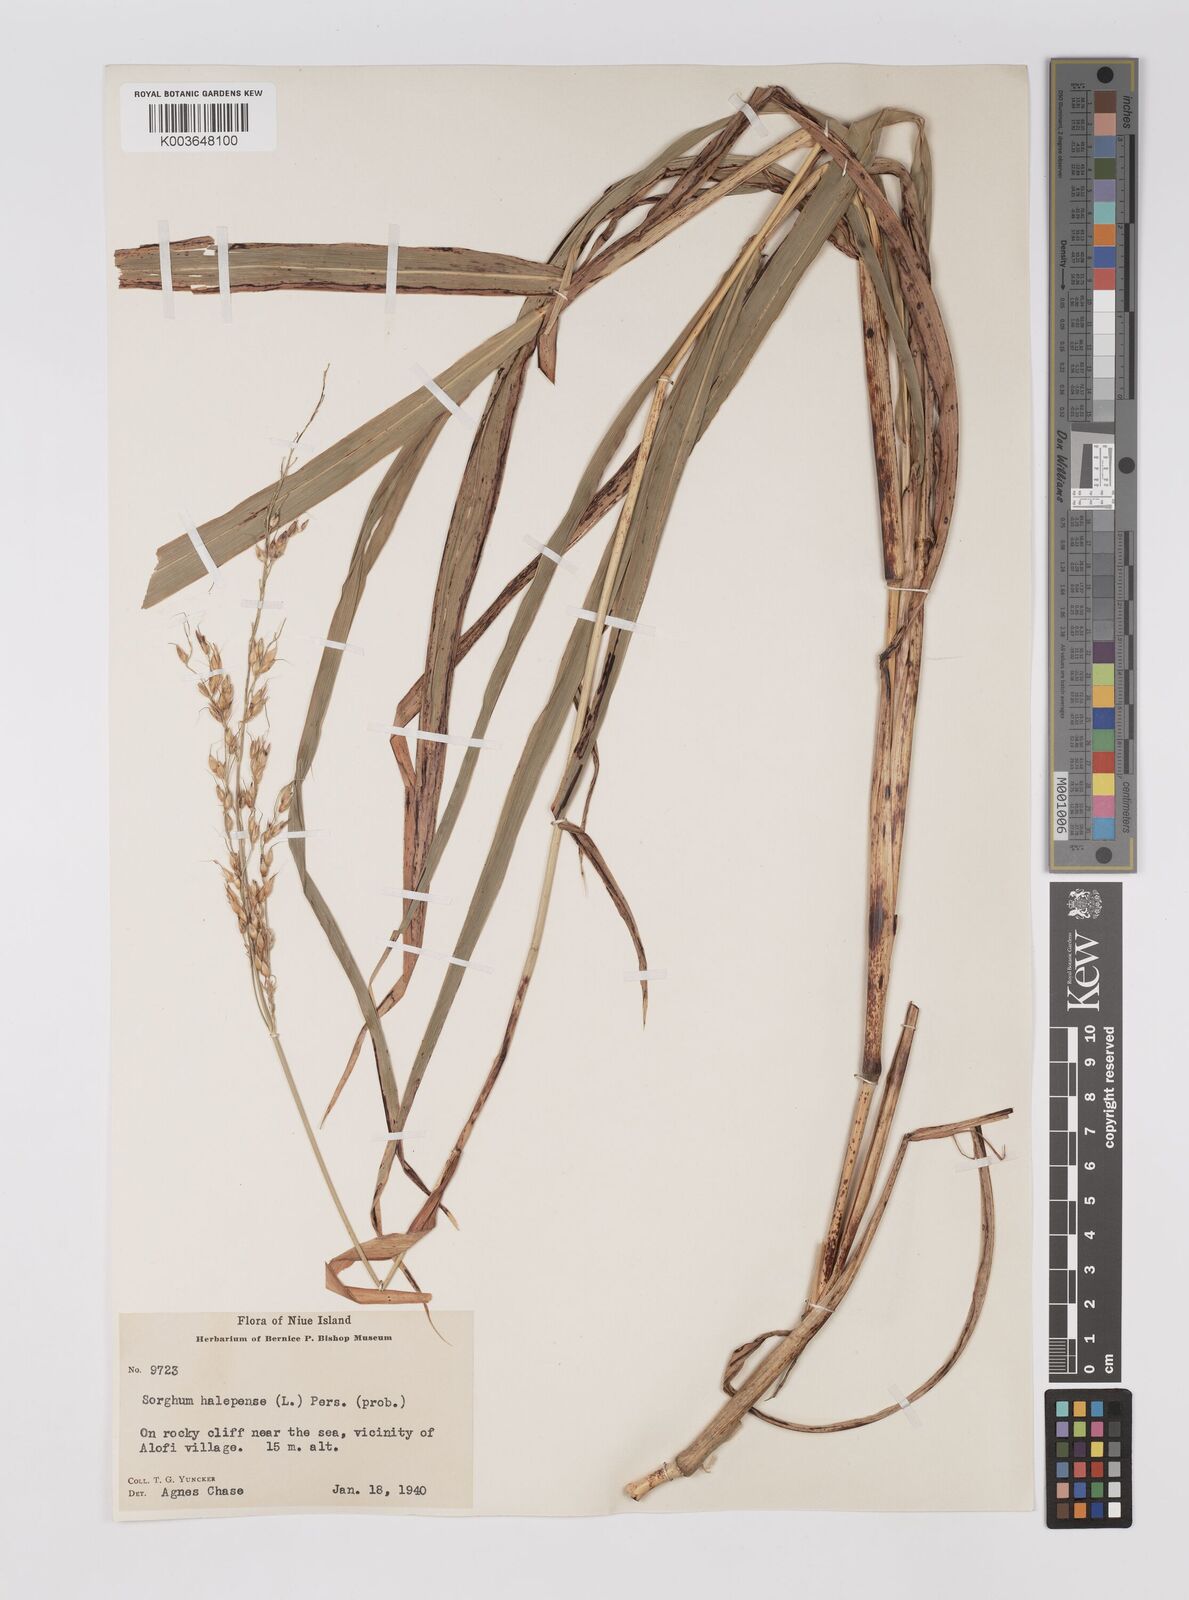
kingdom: Plantae
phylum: Tracheophyta
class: Liliopsida
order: Poales
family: Poaceae
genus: Sorghum
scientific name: Sorghum halepense
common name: Johnson-grass
